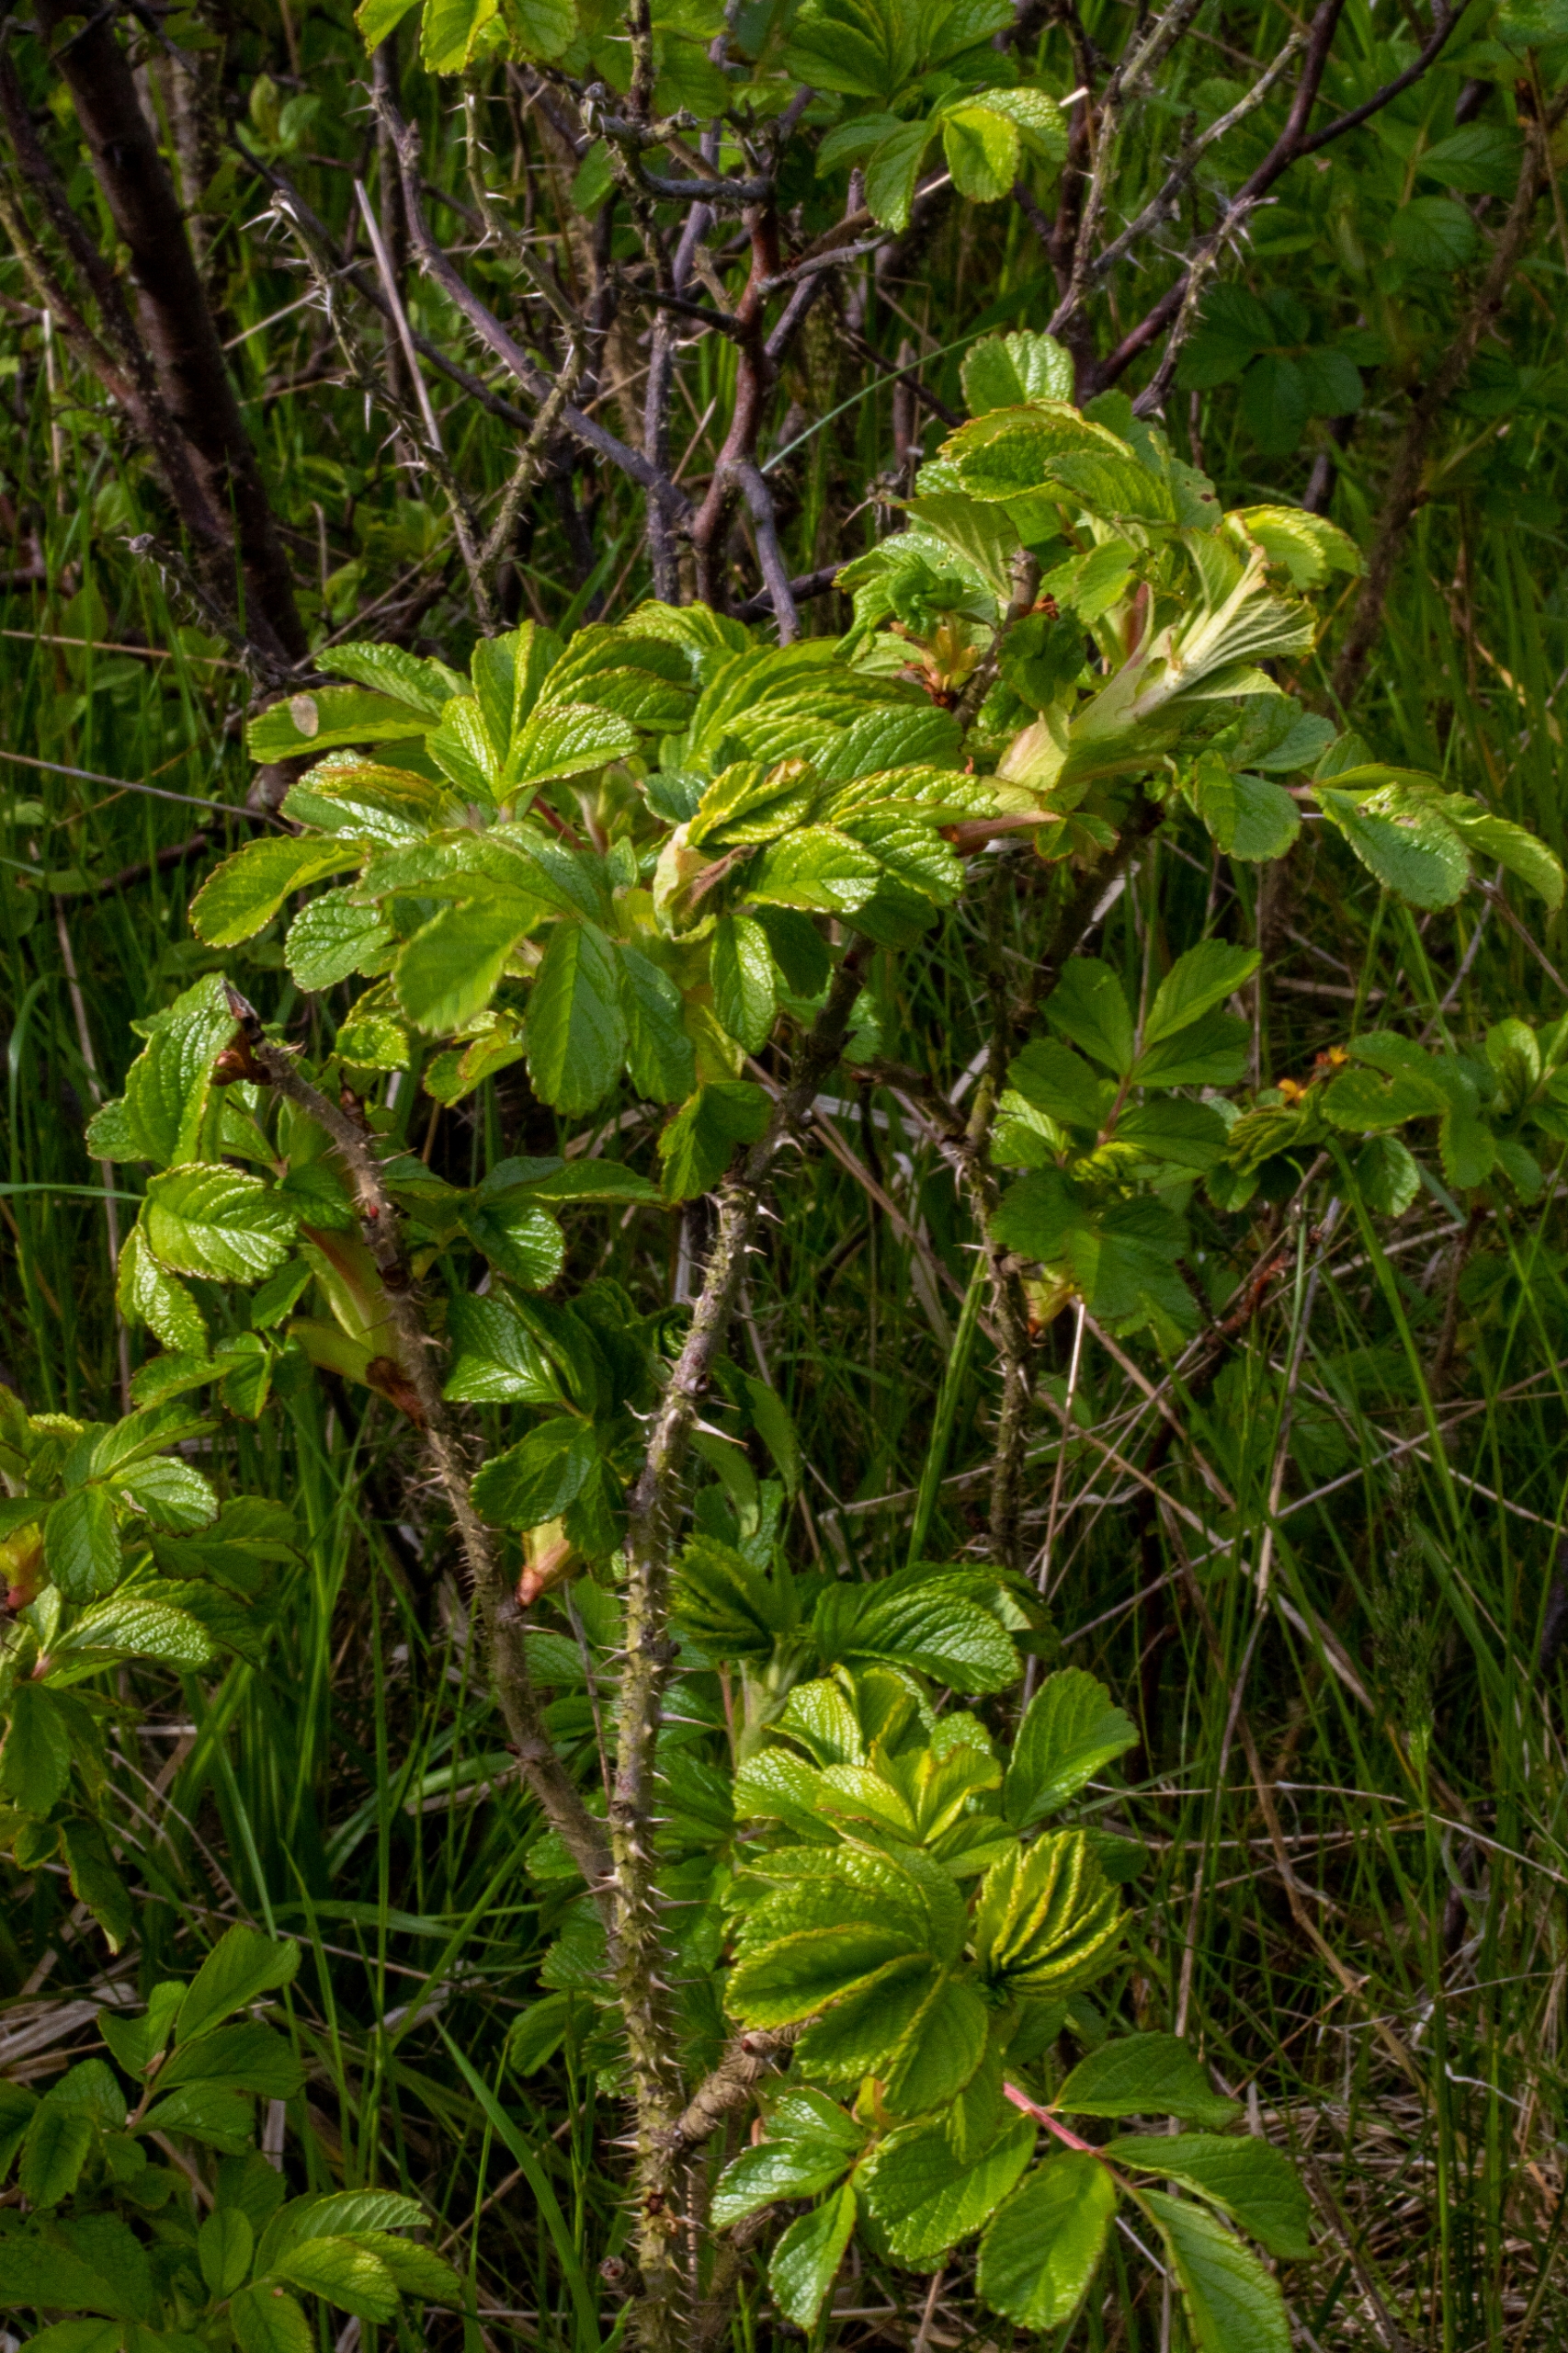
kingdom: Plantae
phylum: Tracheophyta
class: Magnoliopsida
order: Rosales
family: Rosaceae
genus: Rosa
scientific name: Rosa rugosa
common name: Rynket rose
